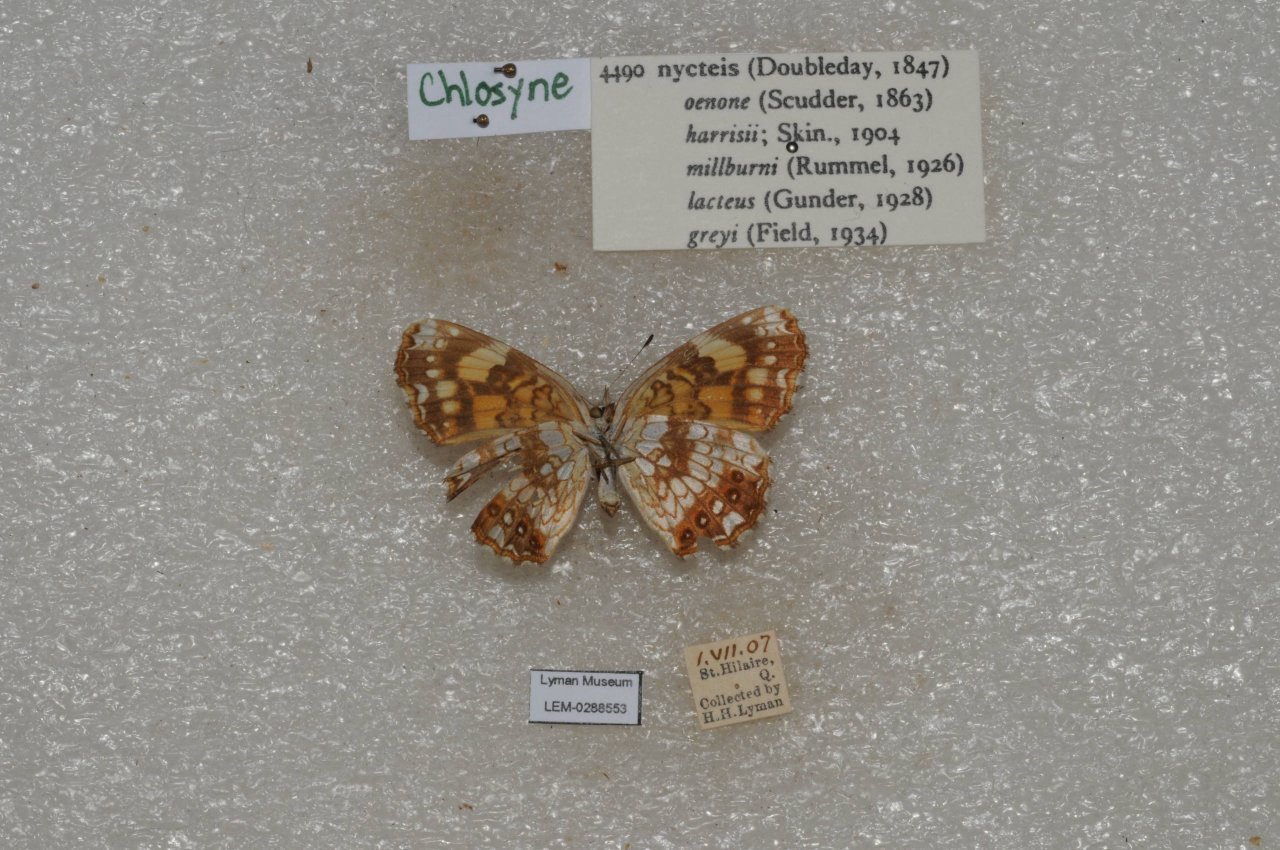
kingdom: Animalia
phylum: Arthropoda
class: Insecta
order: Lepidoptera
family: Nymphalidae
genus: Chlosyne
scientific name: Chlosyne nycteis
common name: Silvery Checkerspot
